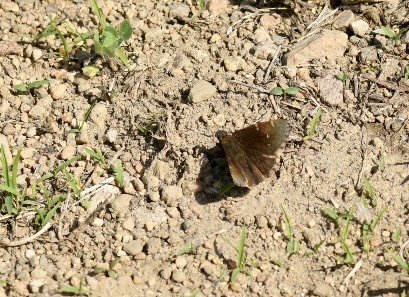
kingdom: Animalia
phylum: Arthropoda
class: Insecta
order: Lepidoptera
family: Hesperiidae
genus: Autochton
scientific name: Autochton
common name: Northern Cloudywing
